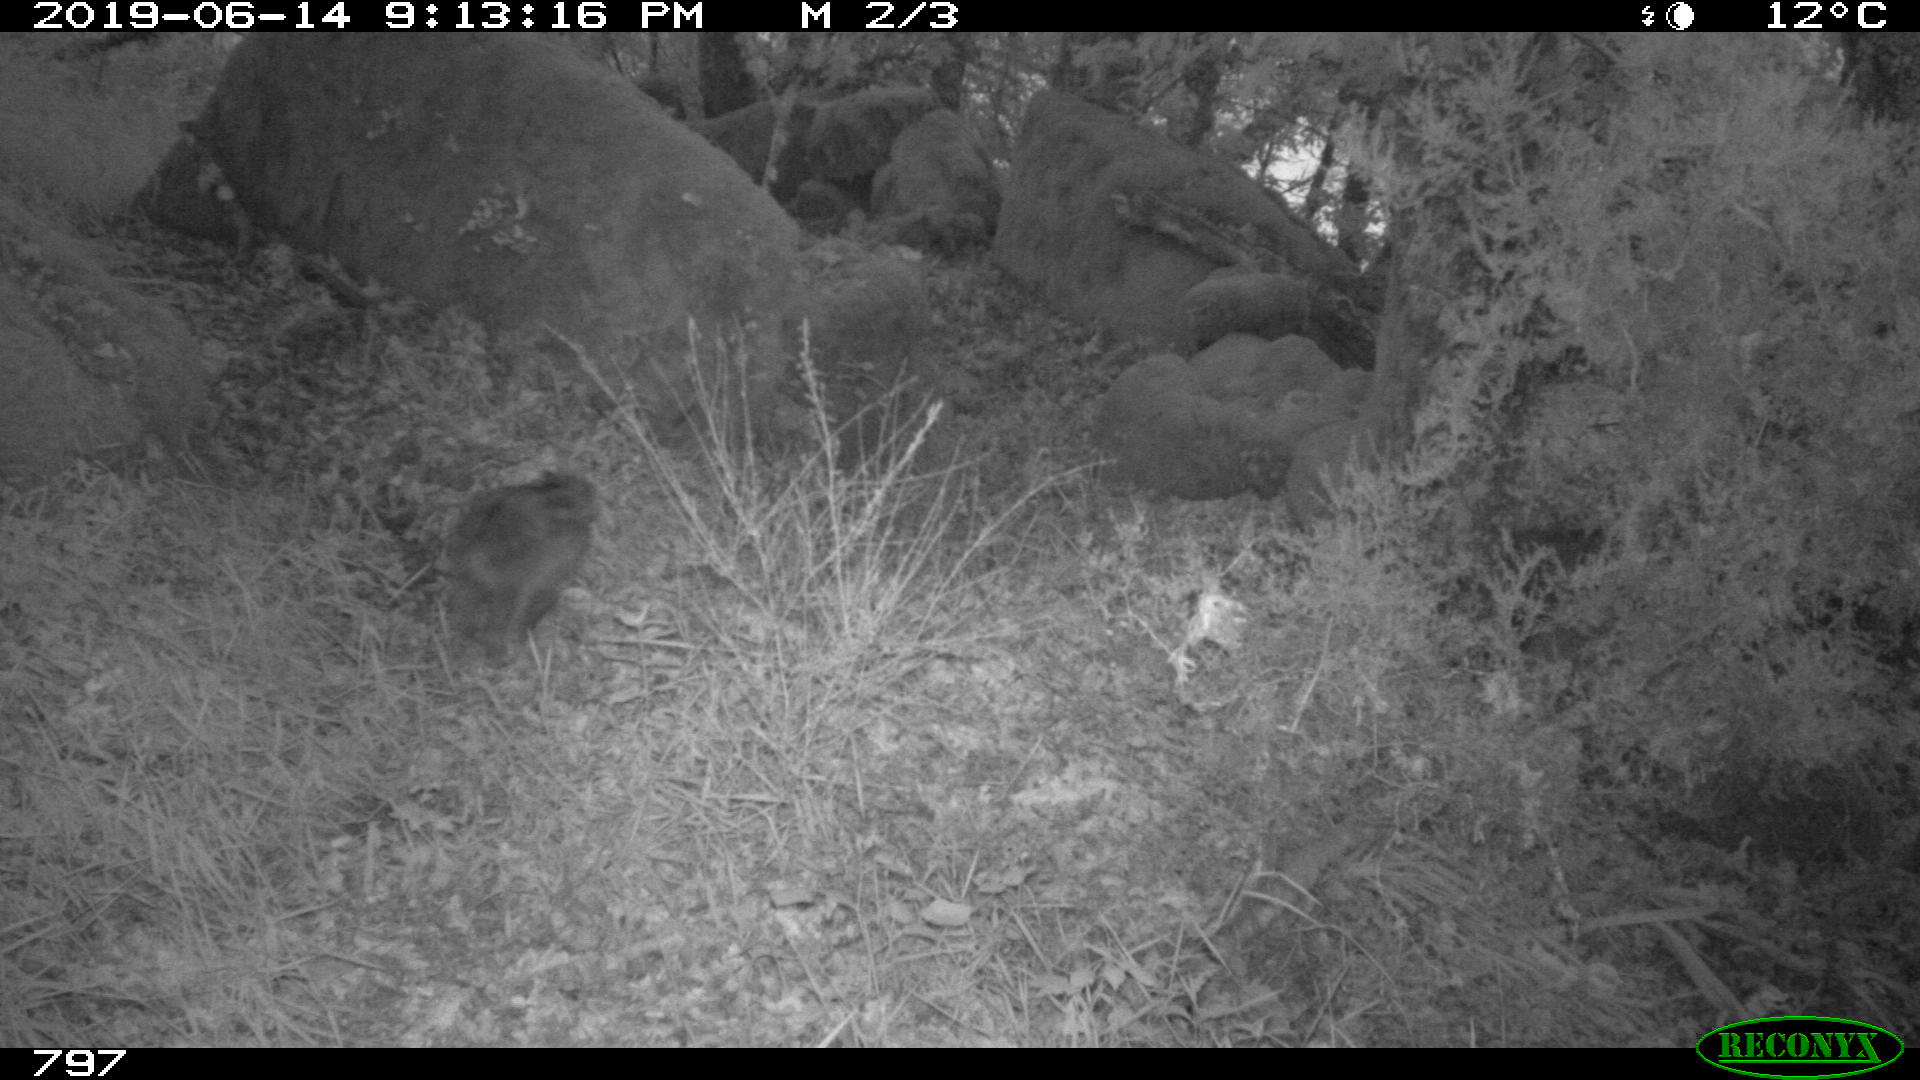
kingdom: Animalia
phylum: Chordata
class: Mammalia
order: Artiodactyla
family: Suidae
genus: Sus
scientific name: Sus scrofa
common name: Wild boar
